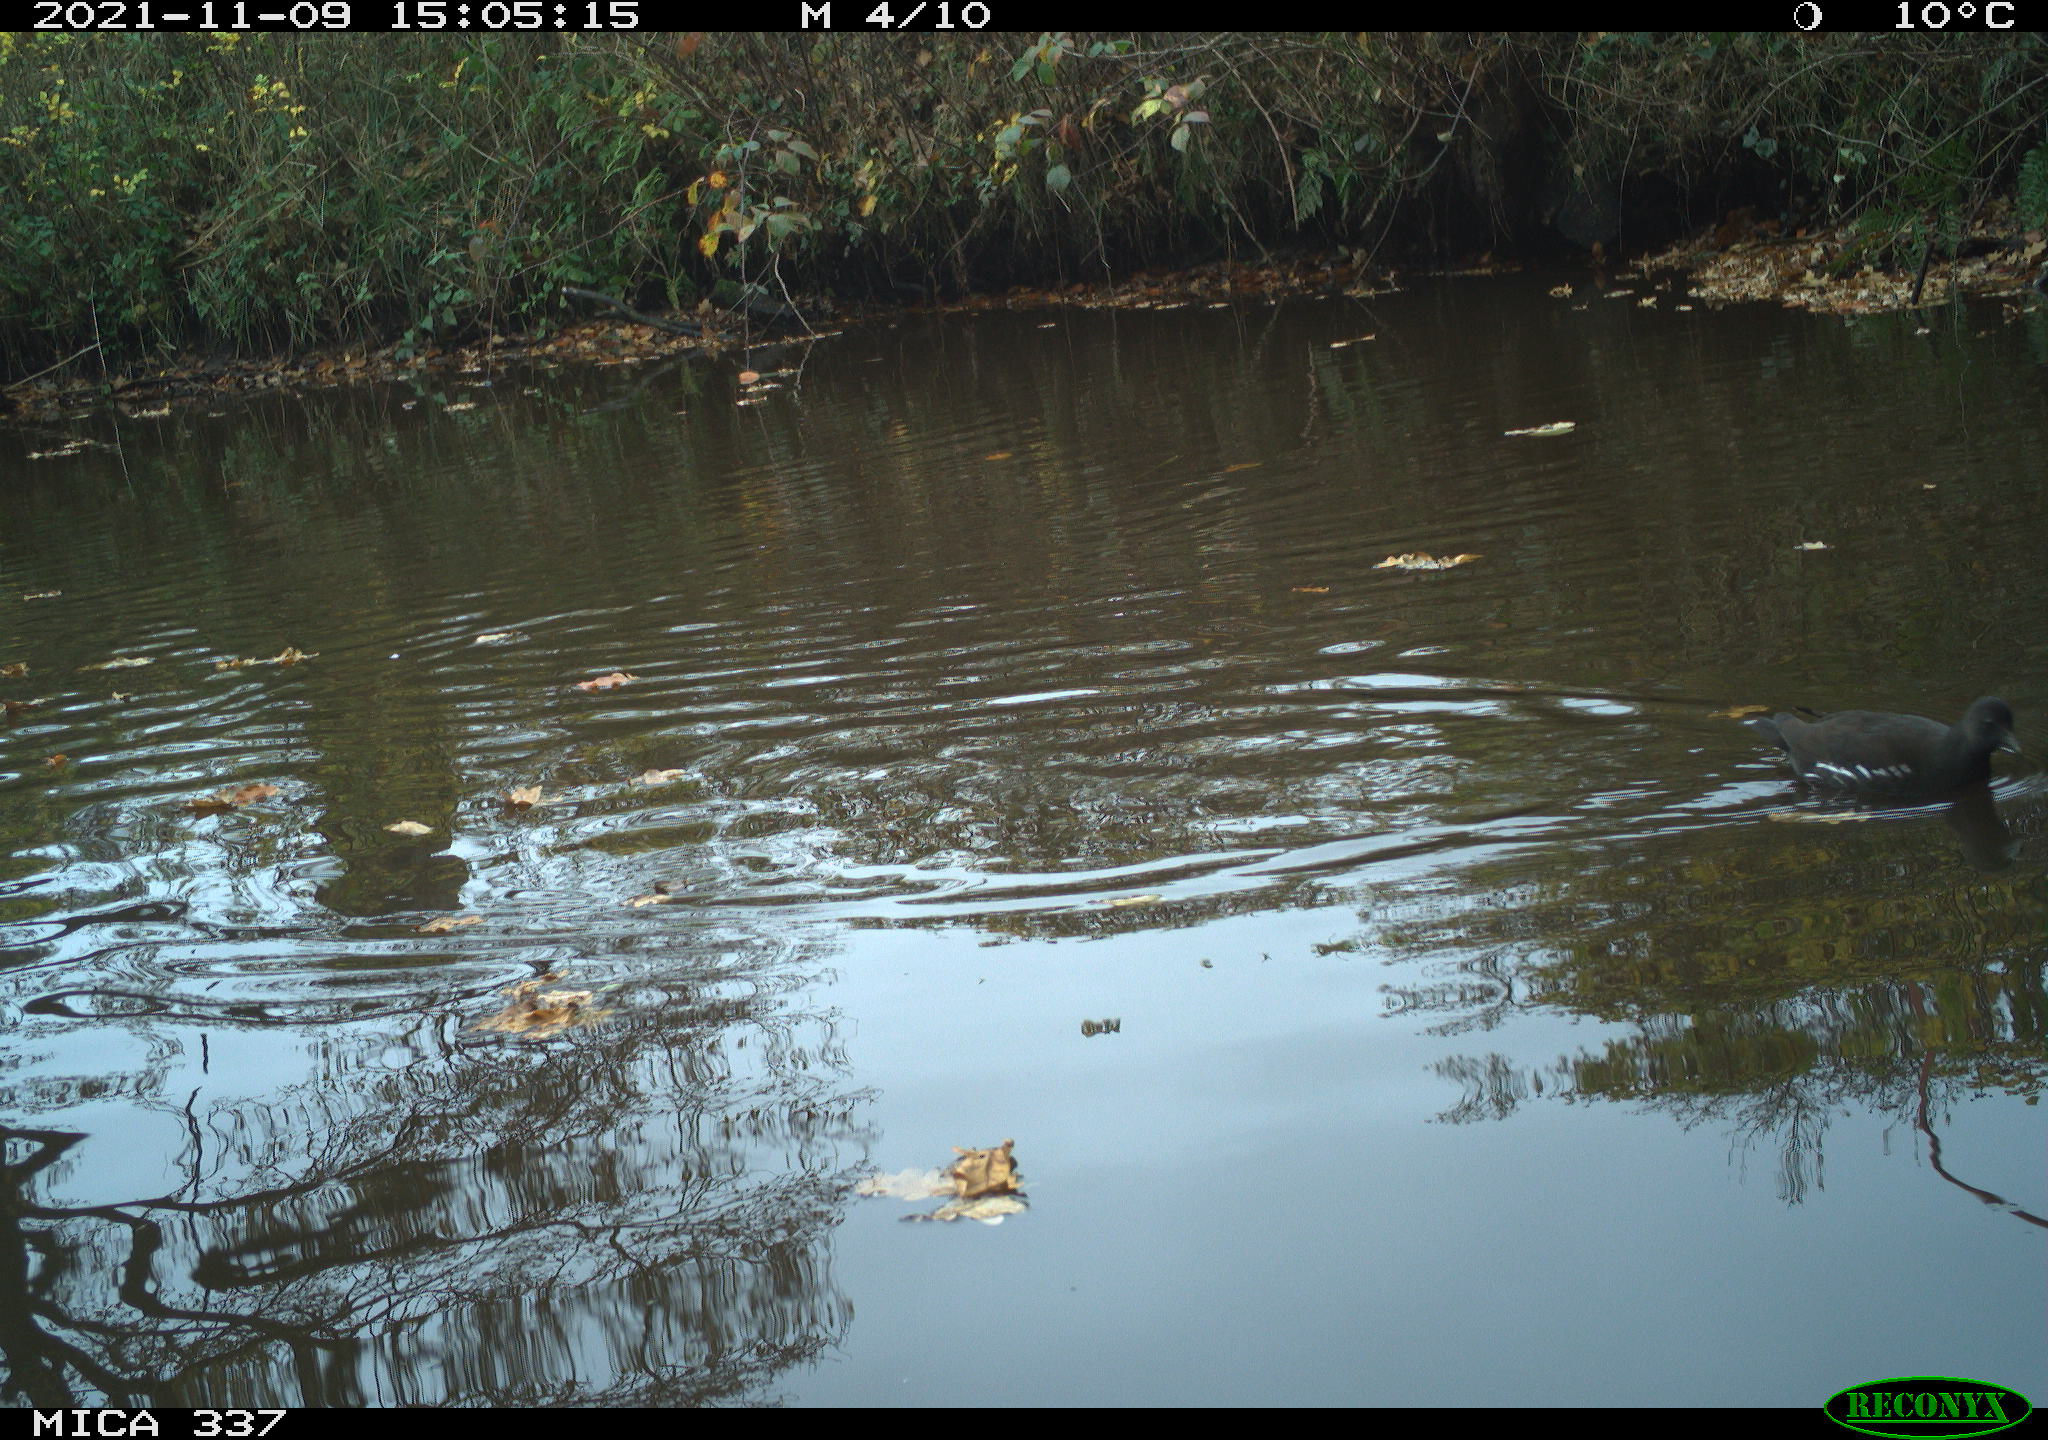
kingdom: Animalia
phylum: Chordata
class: Aves
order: Gruiformes
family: Rallidae
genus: Gallinula
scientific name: Gallinula chloropus
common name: Common moorhen
